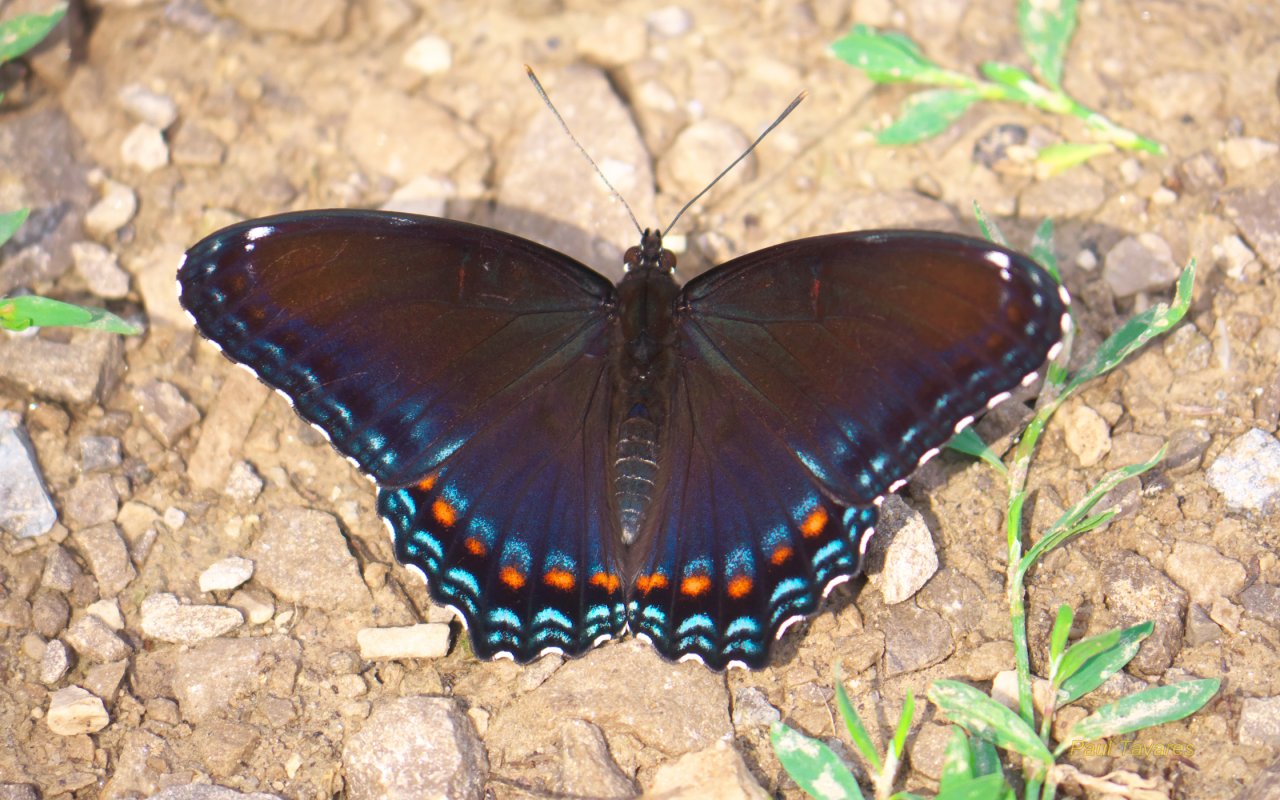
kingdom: Animalia
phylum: Arthropoda
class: Insecta
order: Lepidoptera
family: Nymphalidae
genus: Limenitis
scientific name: Limenitis astyanax
